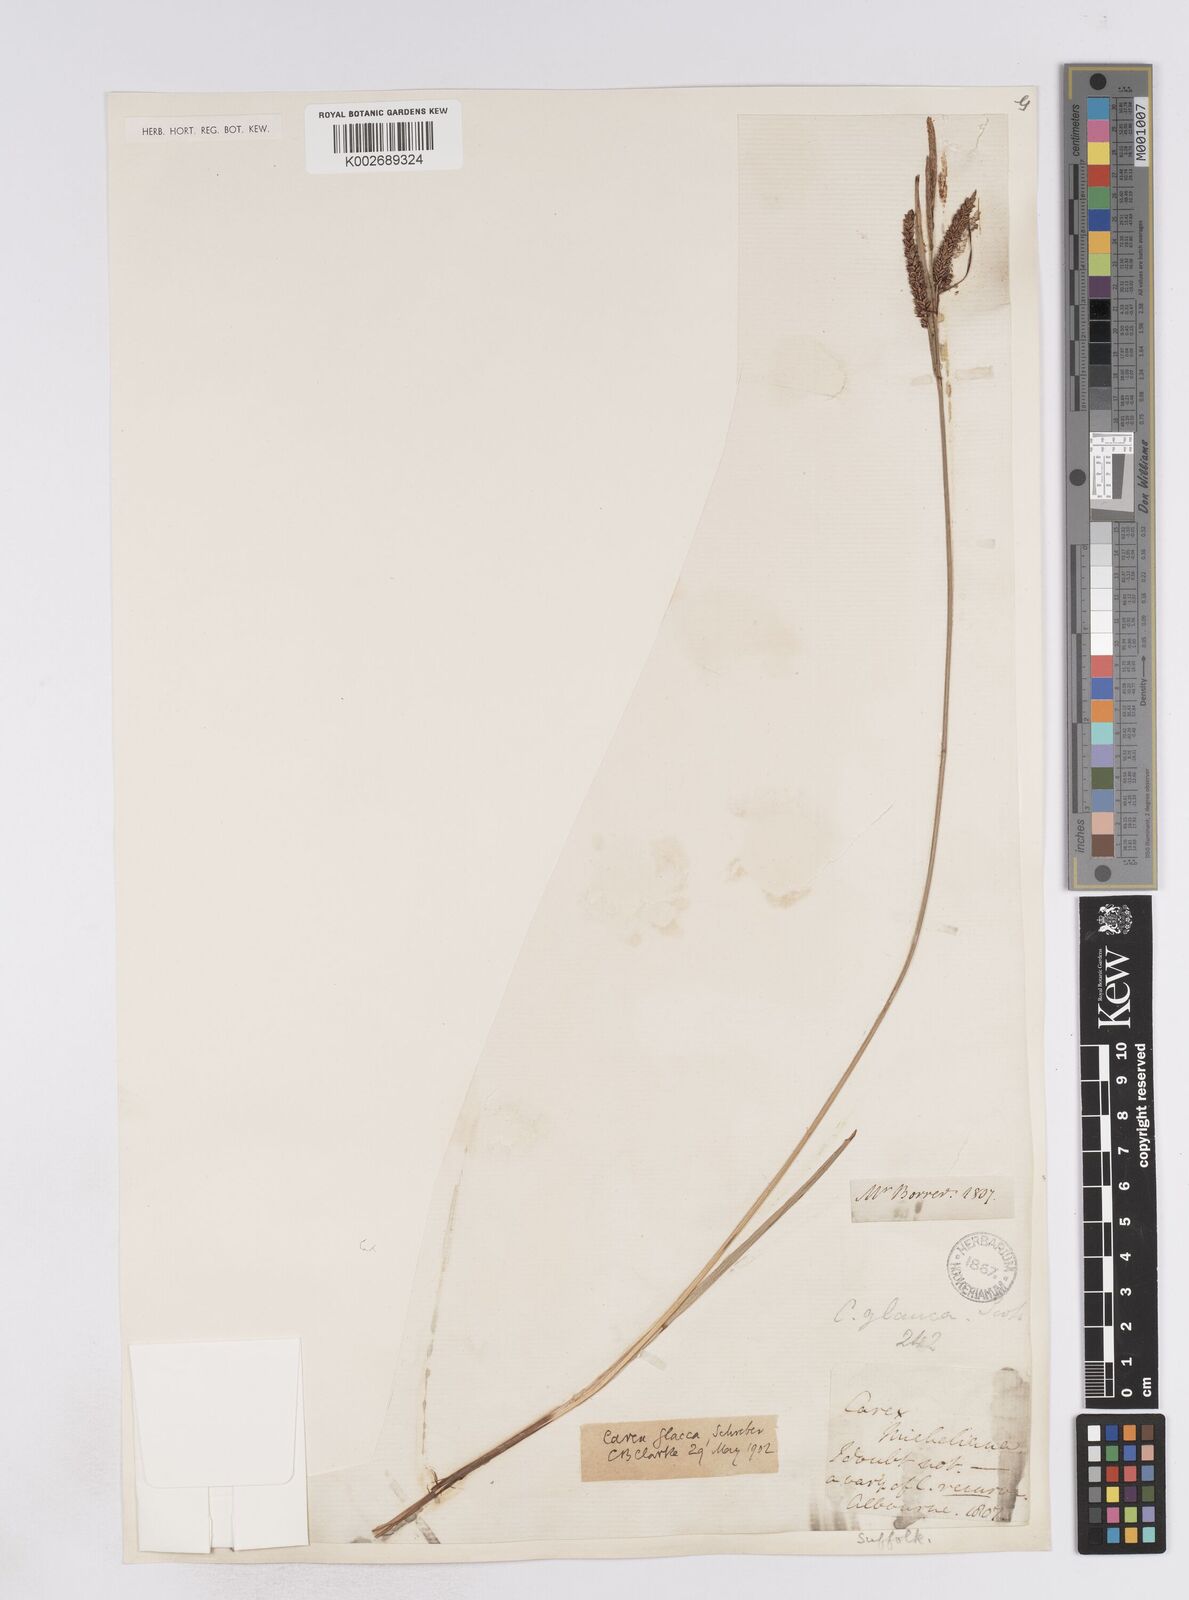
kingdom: Plantae
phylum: Tracheophyta
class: Liliopsida
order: Poales
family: Cyperaceae
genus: Carex
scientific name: Carex flacca
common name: Glaucous sedge
